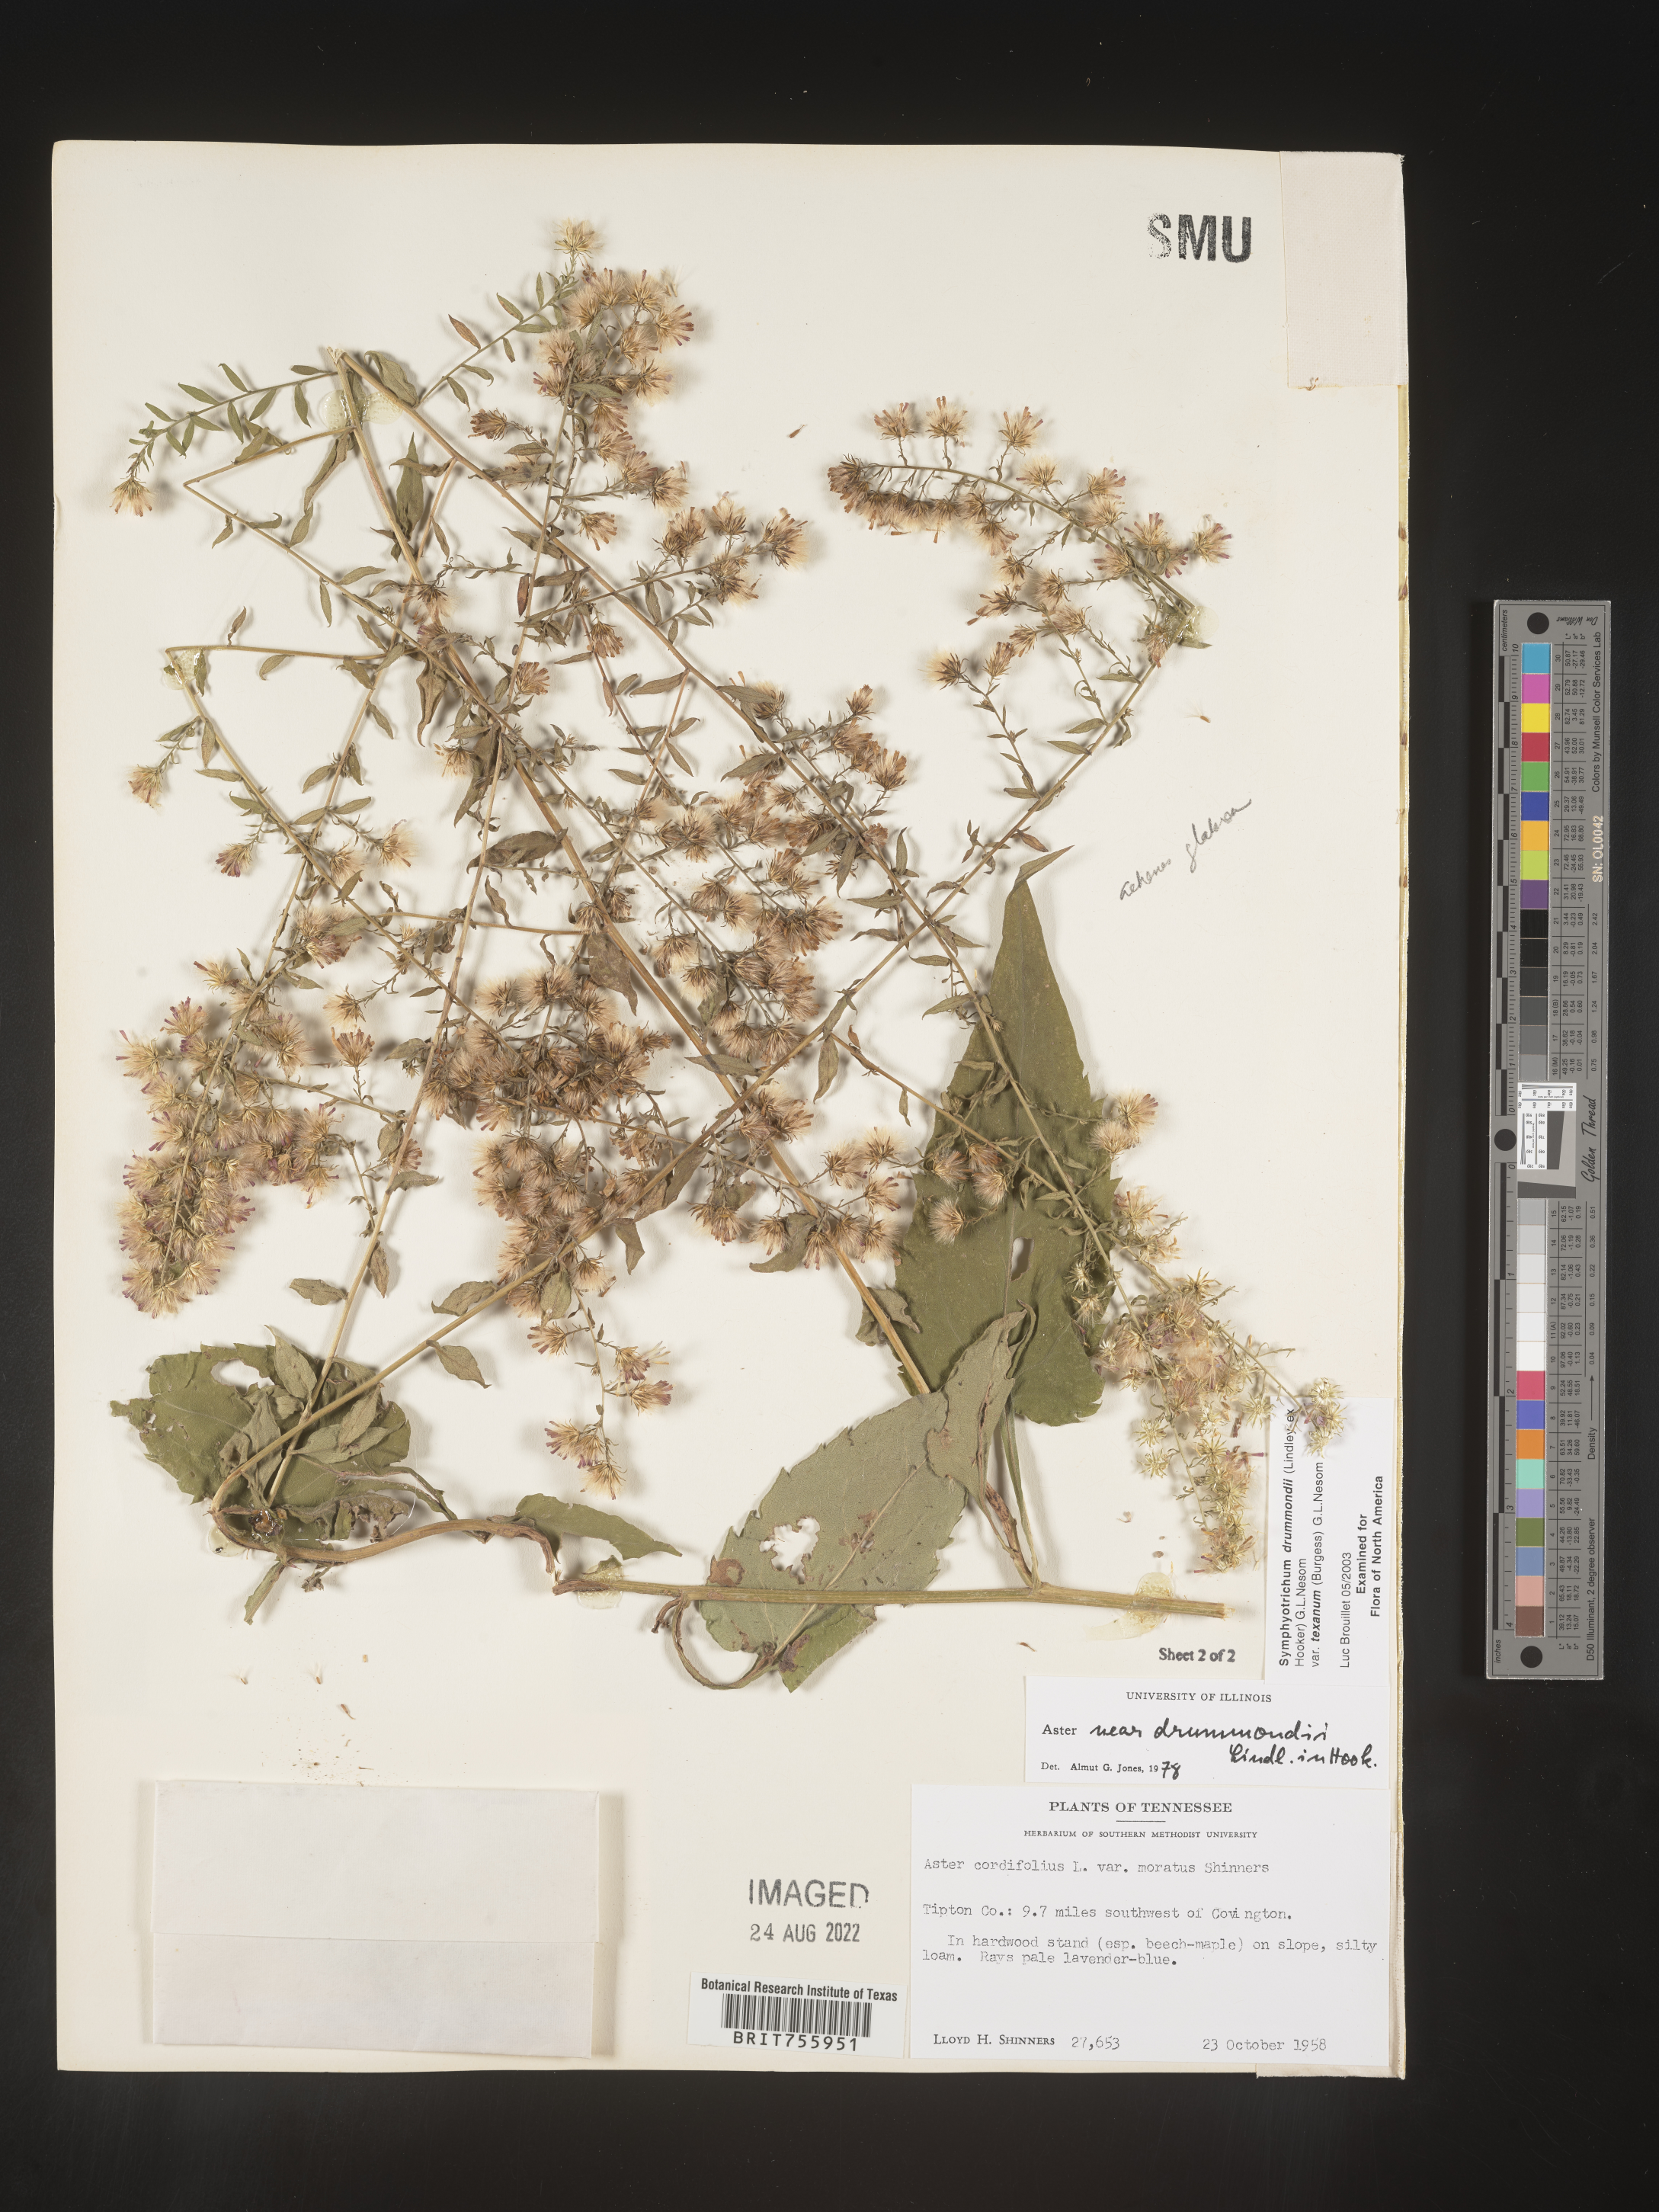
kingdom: Plantae
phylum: Tracheophyta
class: Magnoliopsida
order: Asterales
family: Asteraceae
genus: Symphyotrichum
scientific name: Symphyotrichum drummondii
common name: Drummond's aster
